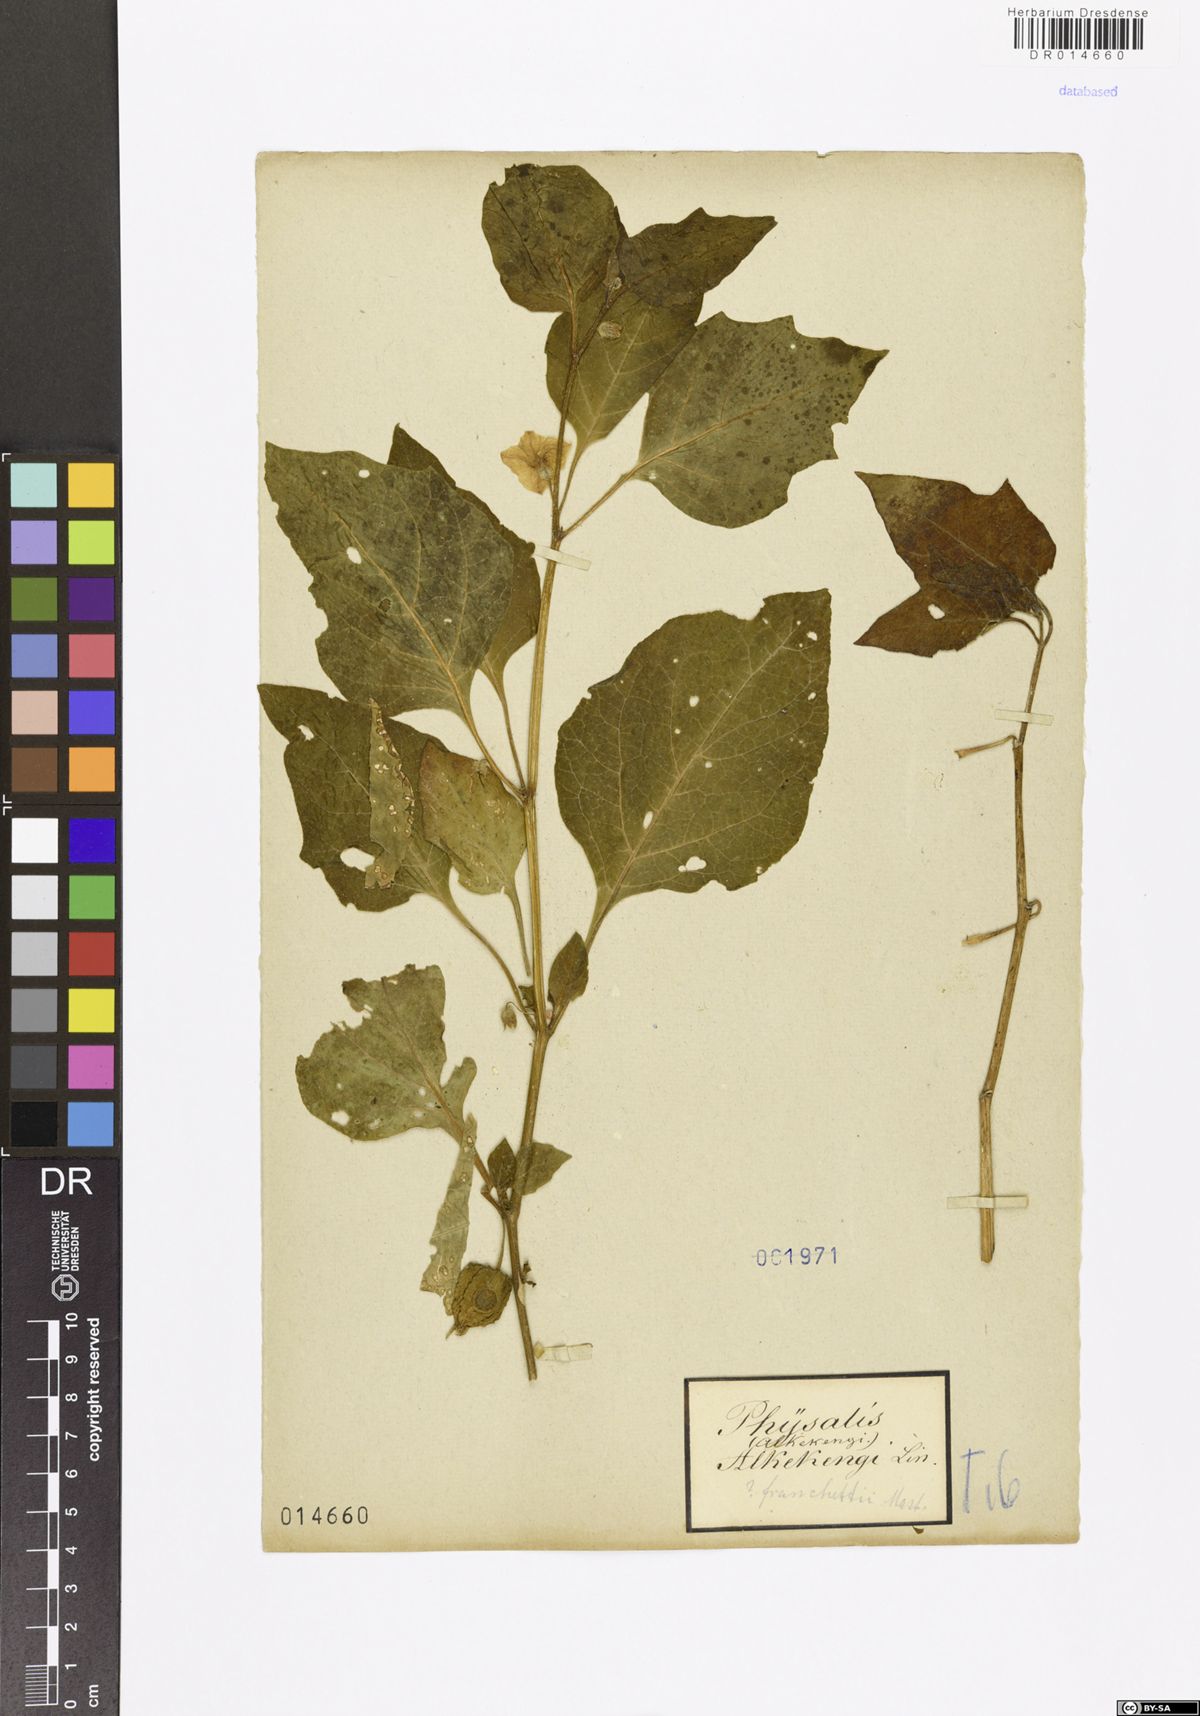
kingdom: Plantae
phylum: Tracheophyta
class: Magnoliopsida
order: Solanales
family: Solanaceae
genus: Alkekengi
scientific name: Alkekengi officinarum
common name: Japanese-lantern
